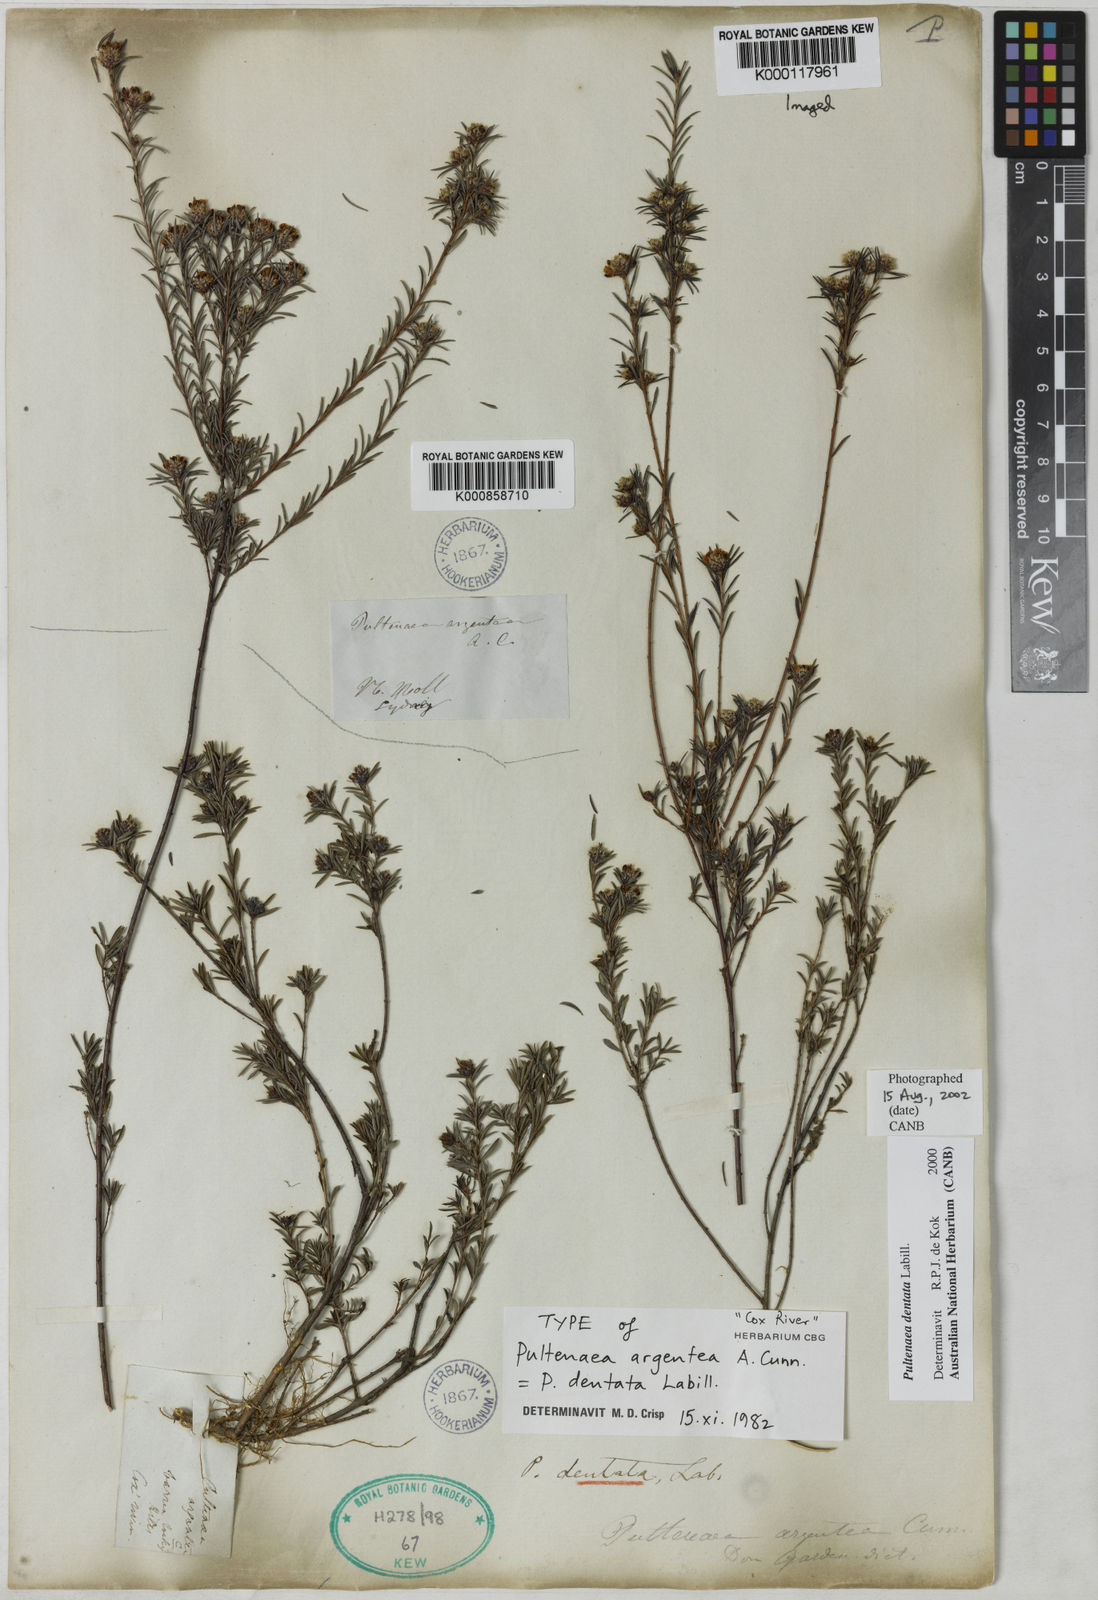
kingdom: Plantae
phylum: Tracheophyta
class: Magnoliopsida
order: Fabales
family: Fabaceae
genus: Pultenaea
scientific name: Pultenaea dentata
